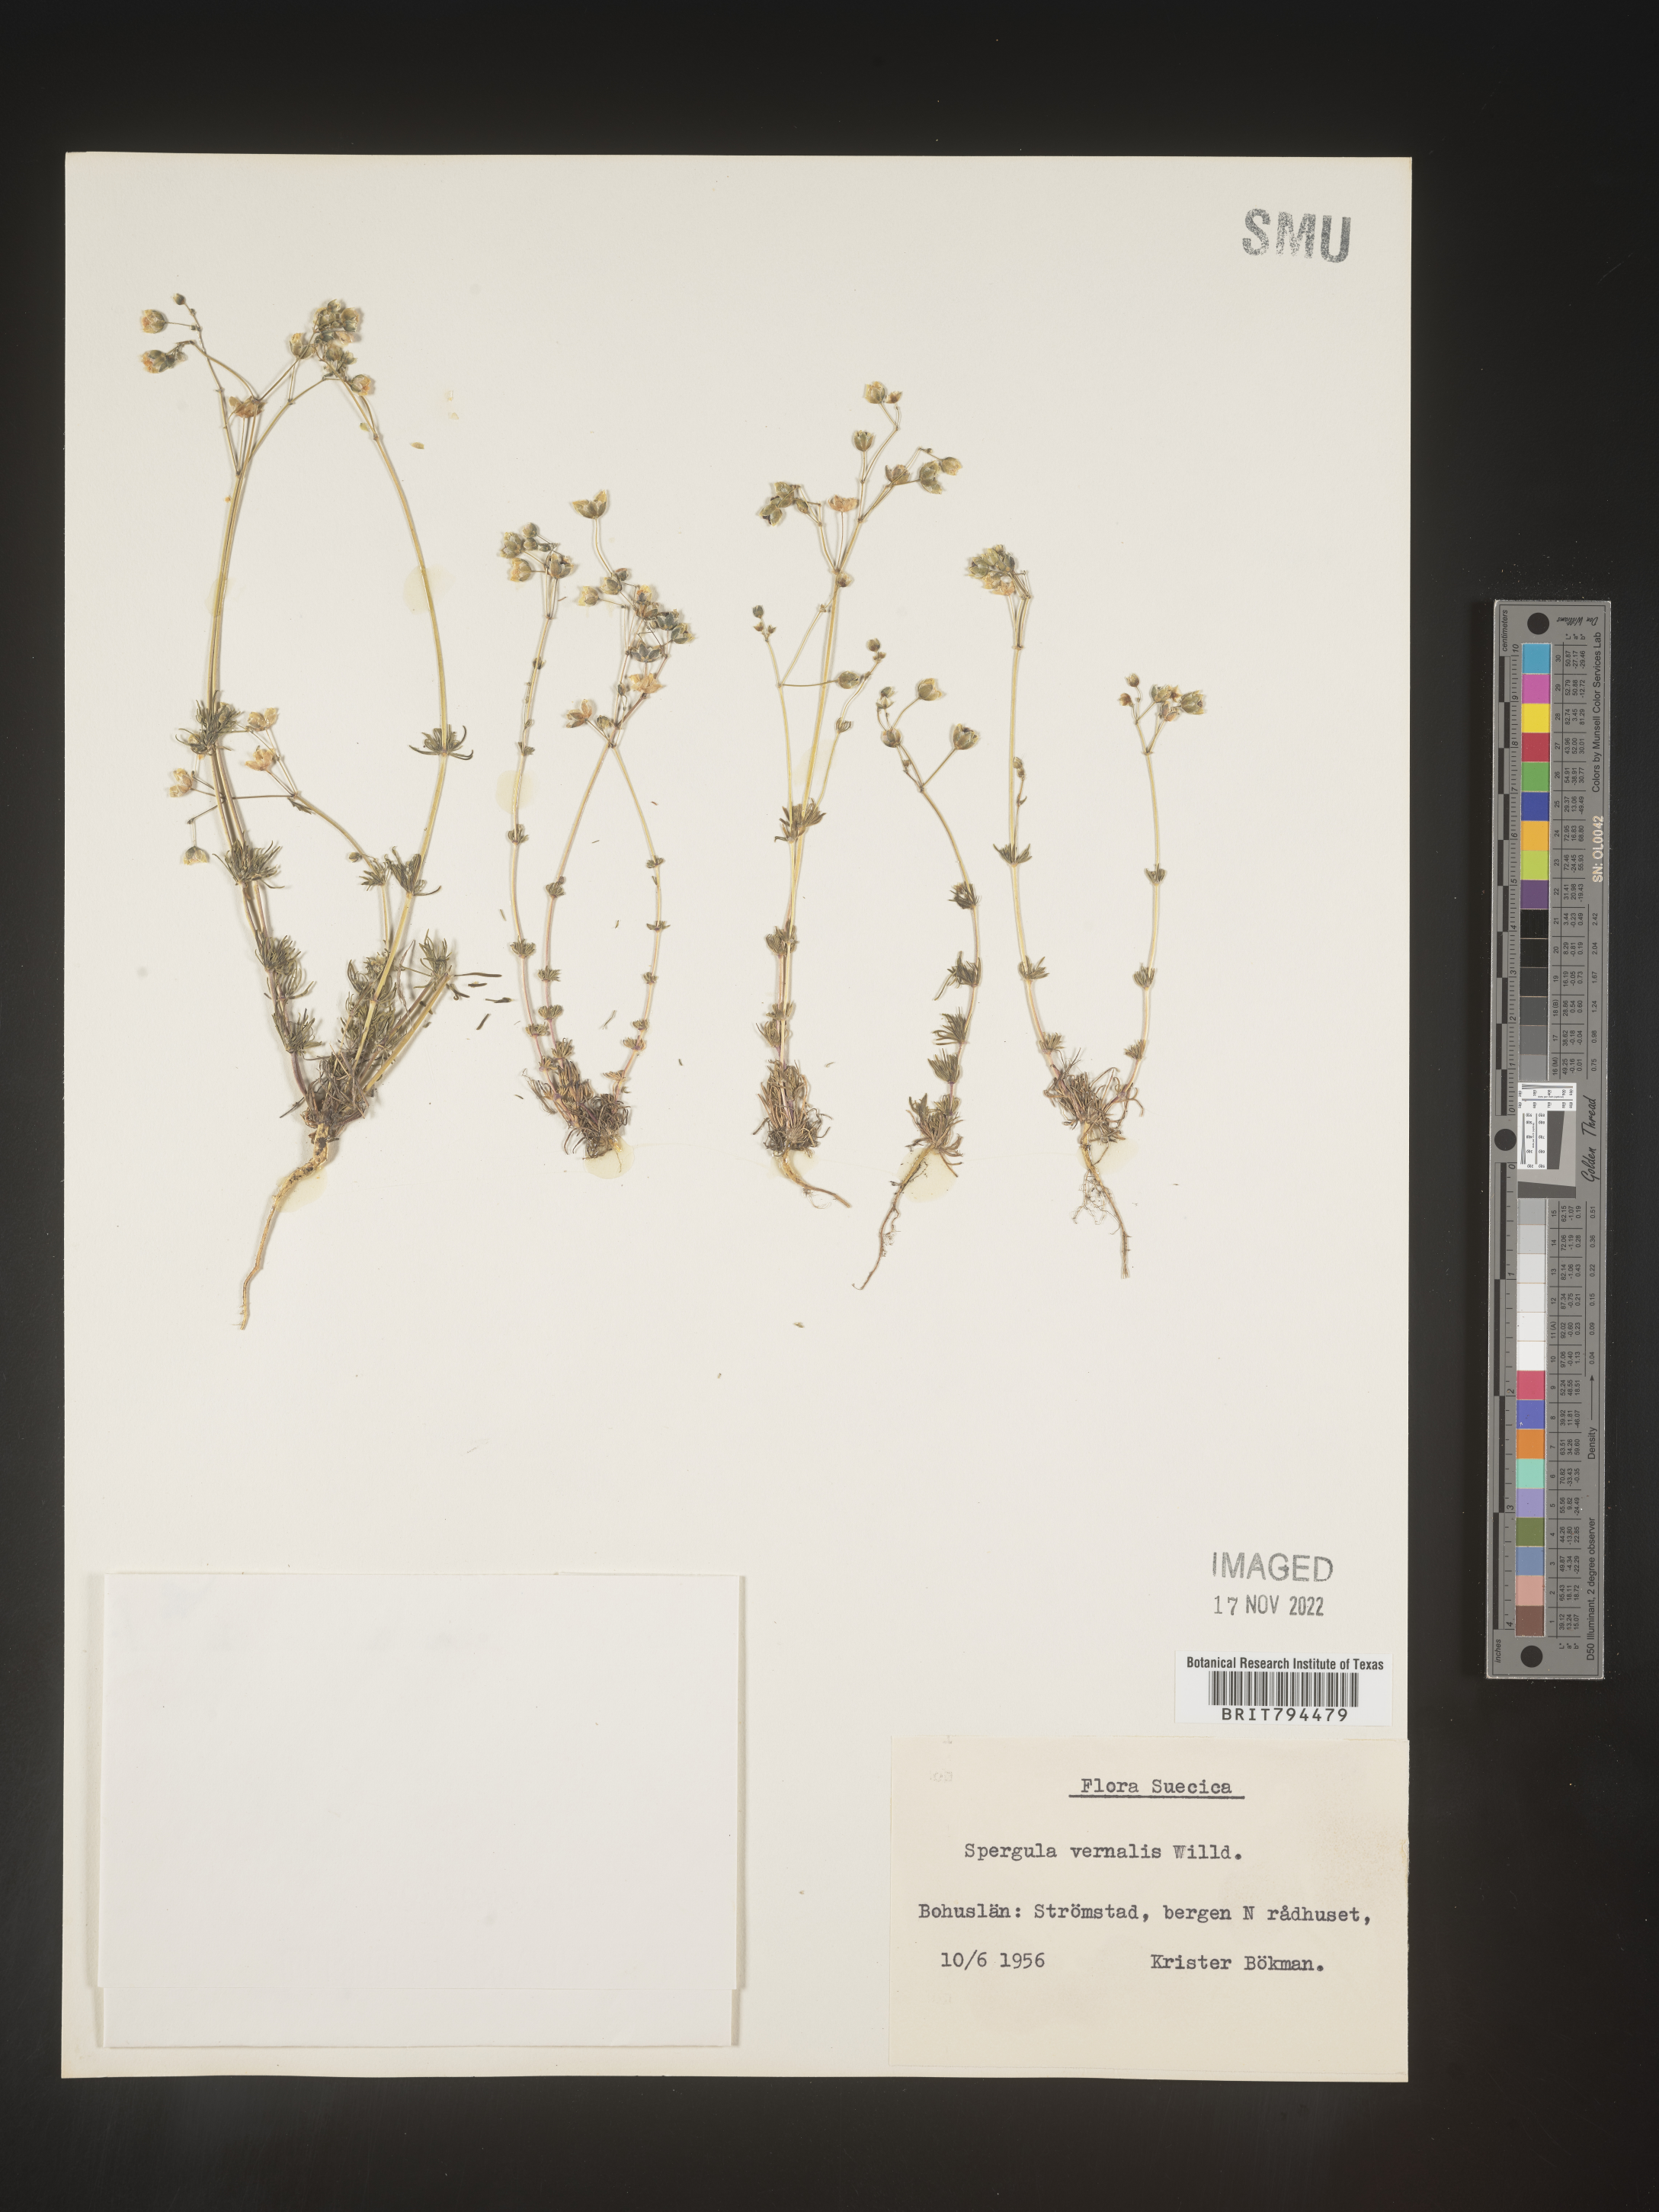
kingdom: Plantae
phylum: Tracheophyta
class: Magnoliopsida
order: Caryophyllales
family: Caryophyllaceae
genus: Spergula
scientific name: Spergula pentandra
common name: Wingstem spurry
